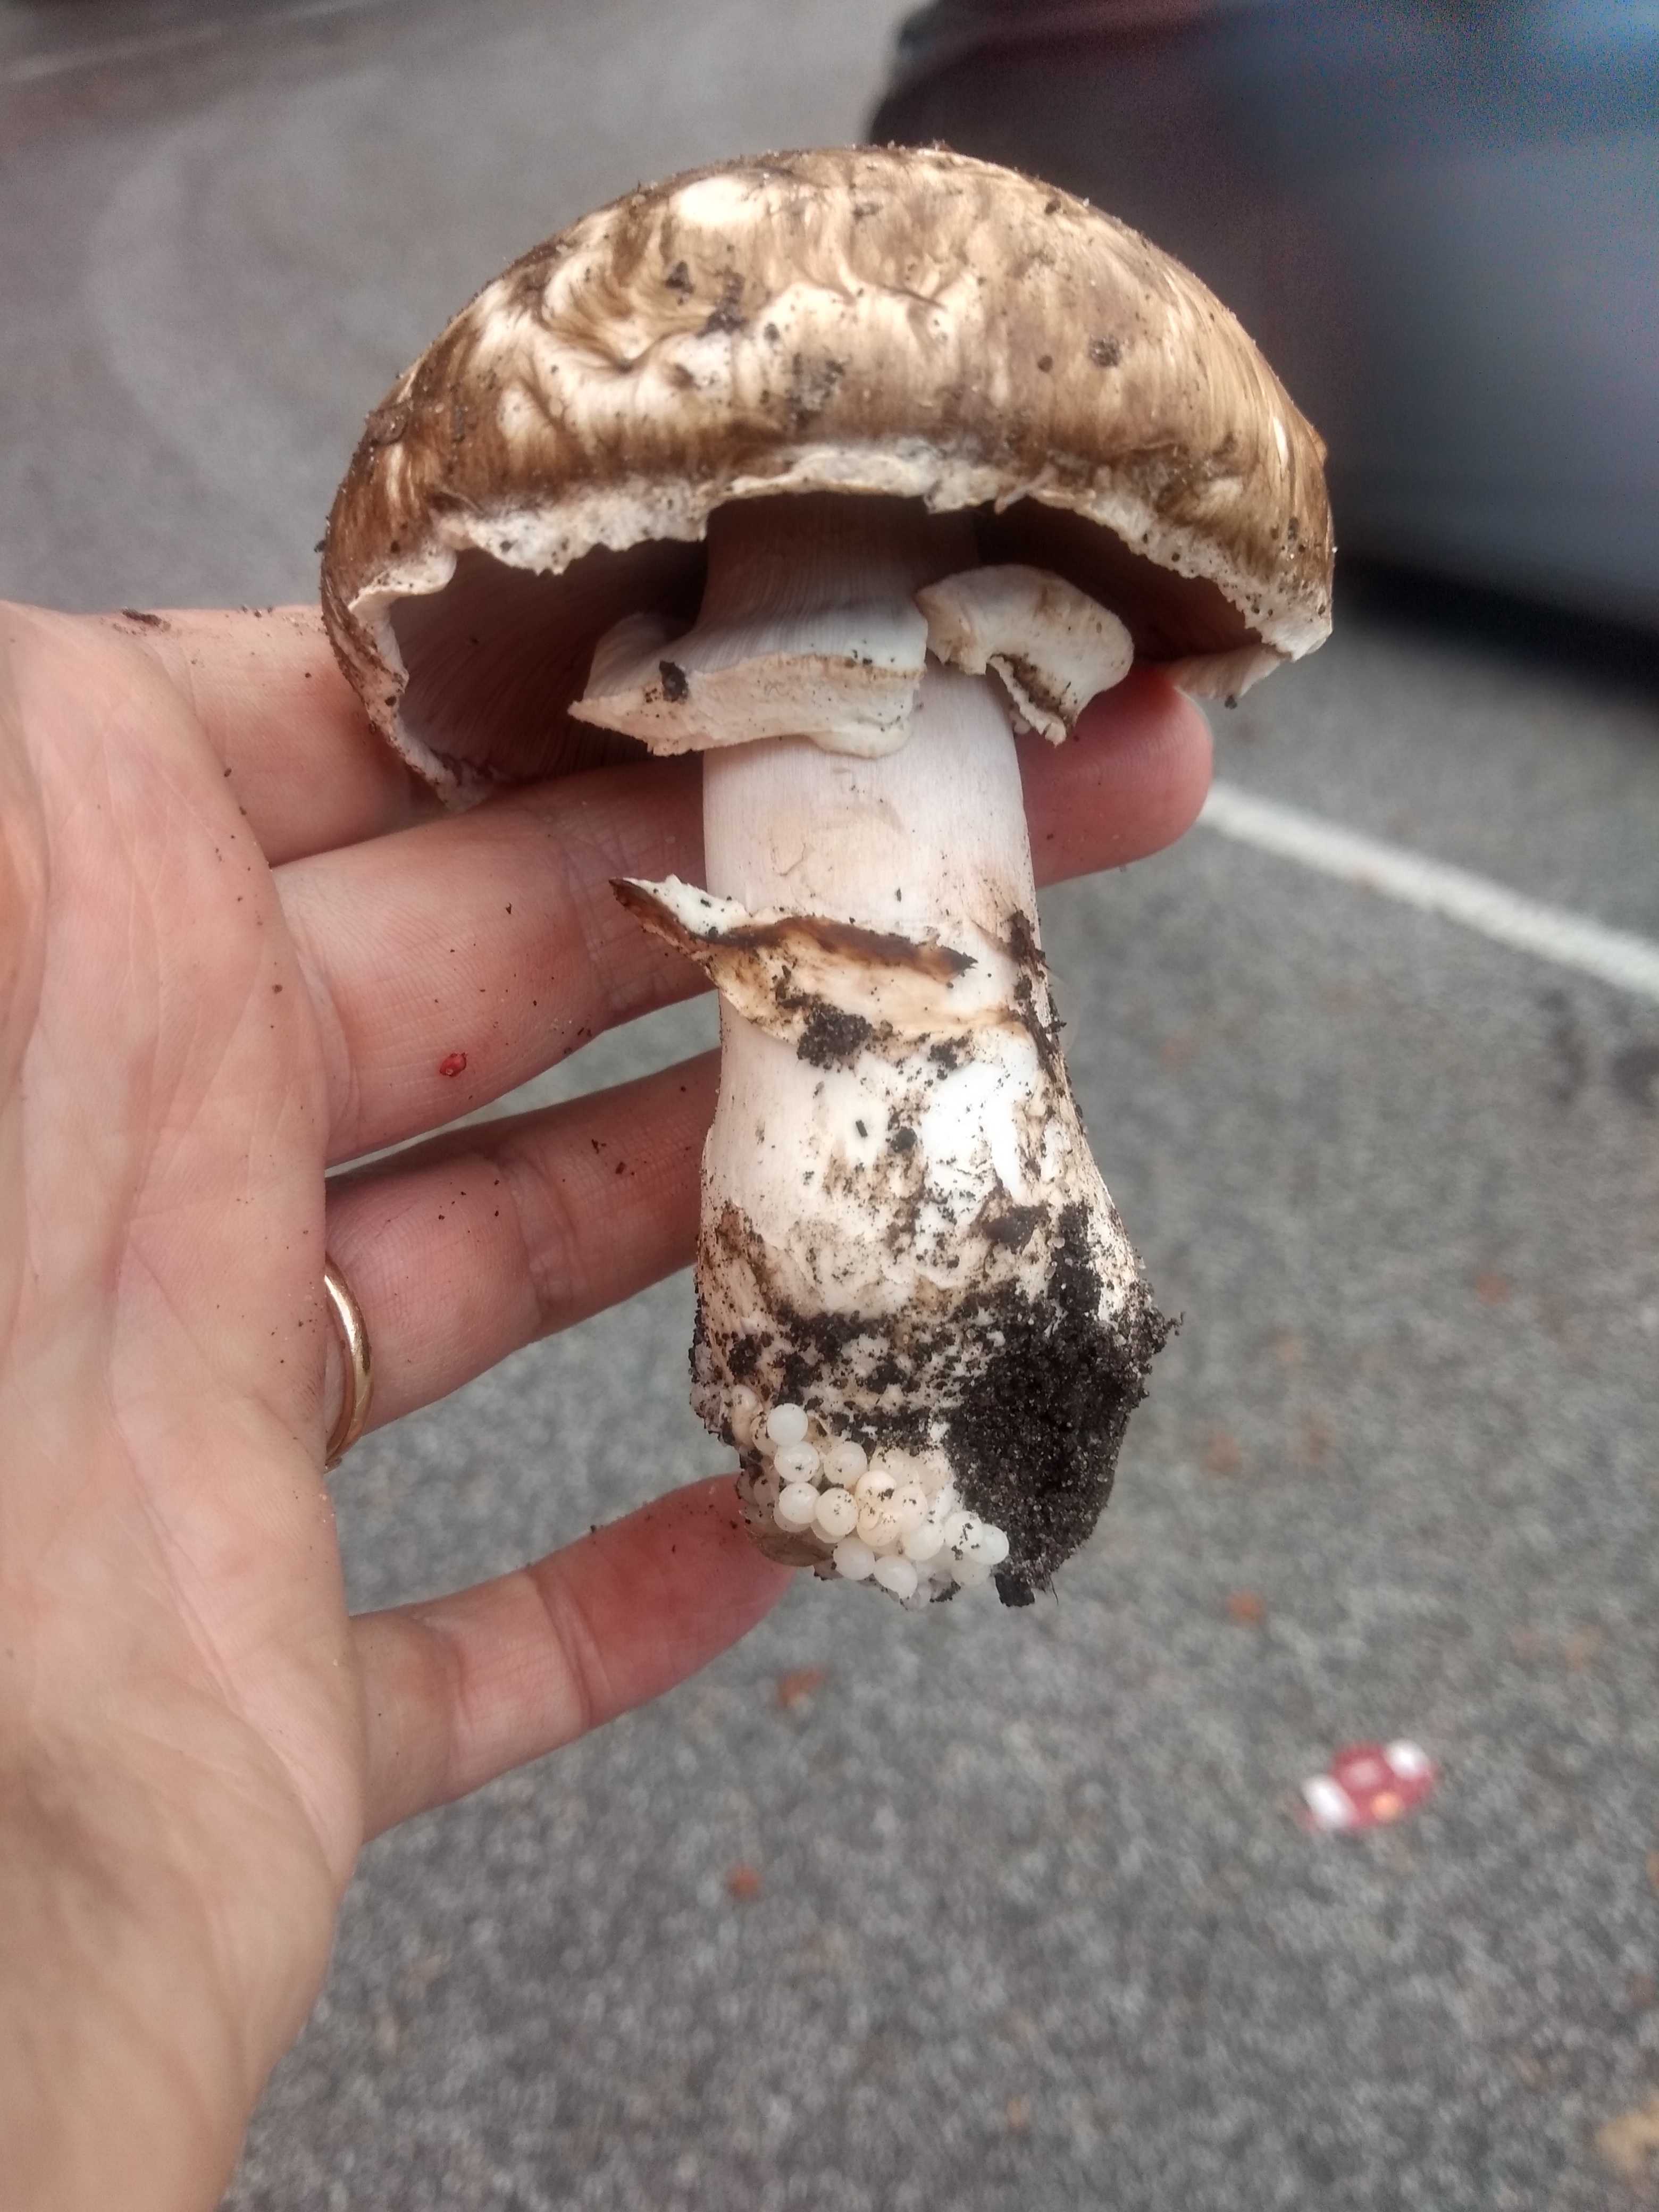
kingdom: Fungi
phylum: Basidiomycota
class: Agaricomycetes
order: Agaricales
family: Agaricaceae
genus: Agaricus
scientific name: Agaricus subperonatus
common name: knippe-champignon
